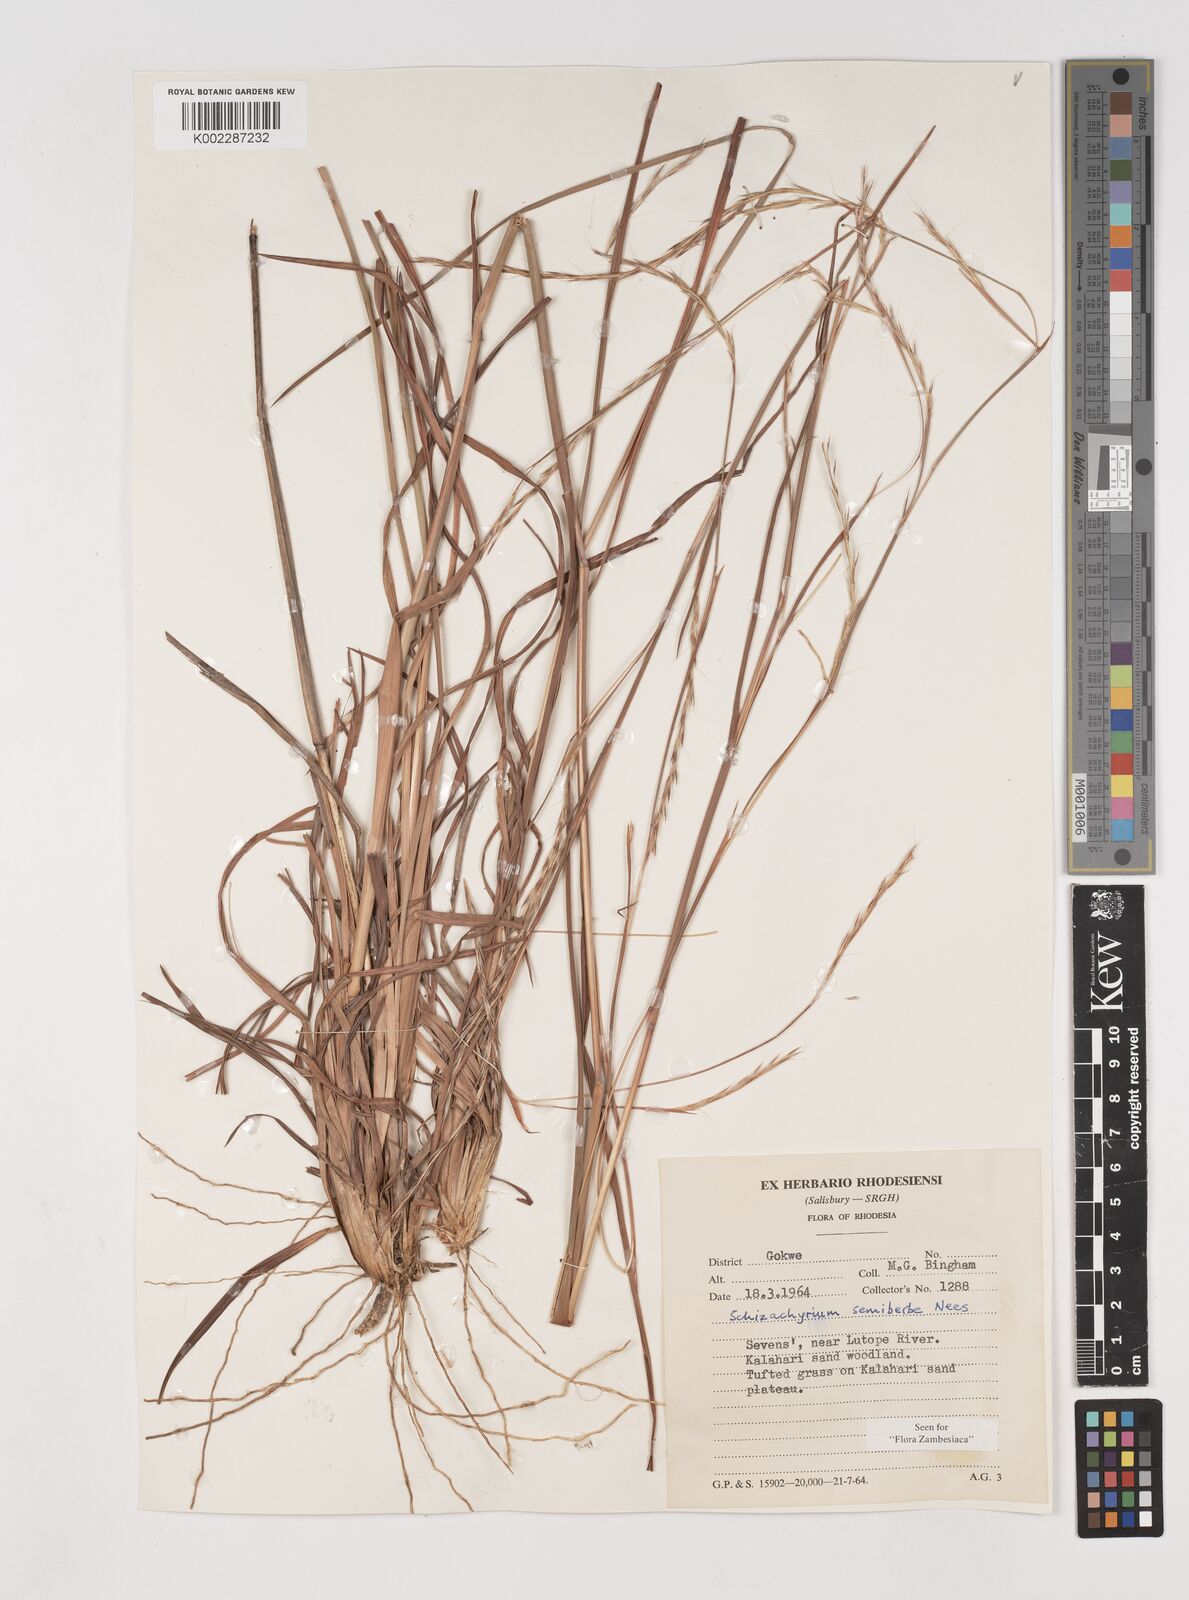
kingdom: Plantae
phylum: Tracheophyta
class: Liliopsida
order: Poales
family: Poaceae
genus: Schizachyrium
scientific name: Schizachyrium sanguineum
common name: Crimson bluestem
